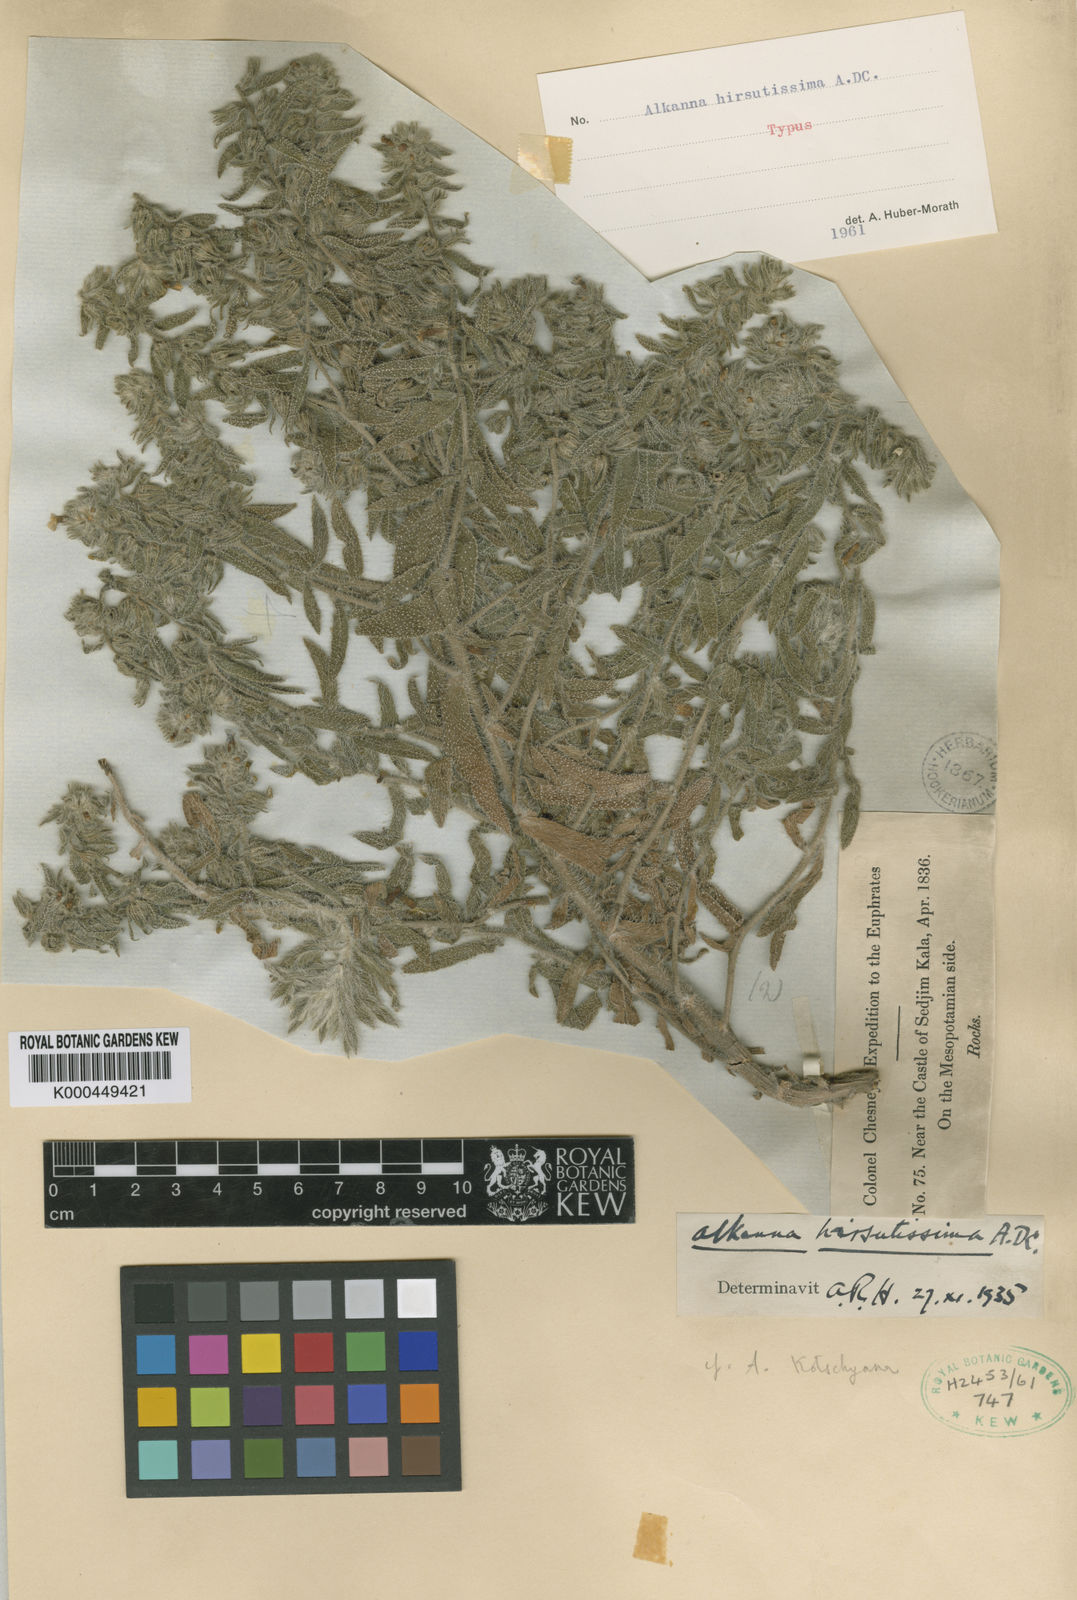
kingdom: Plantae
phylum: Tracheophyta
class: Magnoliopsida
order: Boraginales
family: Boraginaceae
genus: Alkanna
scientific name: Alkanna hirsutissima
